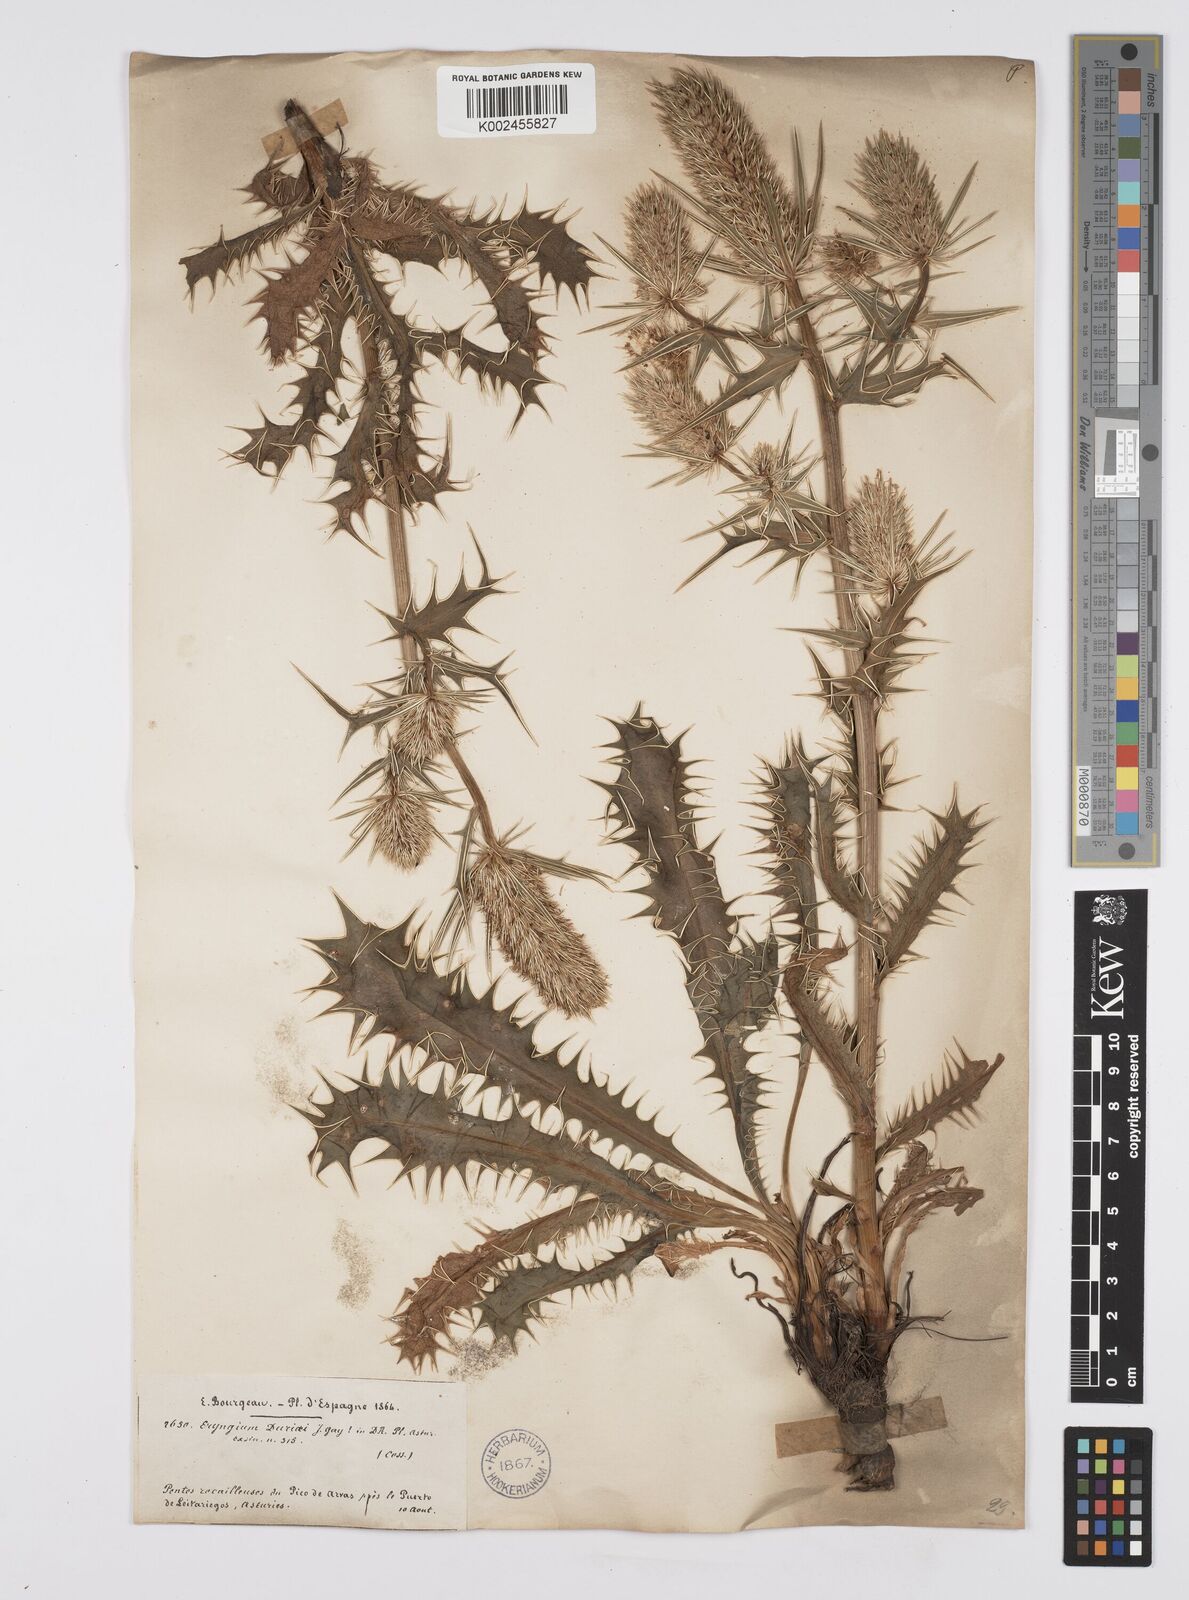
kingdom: Plantae
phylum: Tracheophyta
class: Magnoliopsida
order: Apiales
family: Apiaceae
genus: Eryngium
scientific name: Eryngium duriaei
